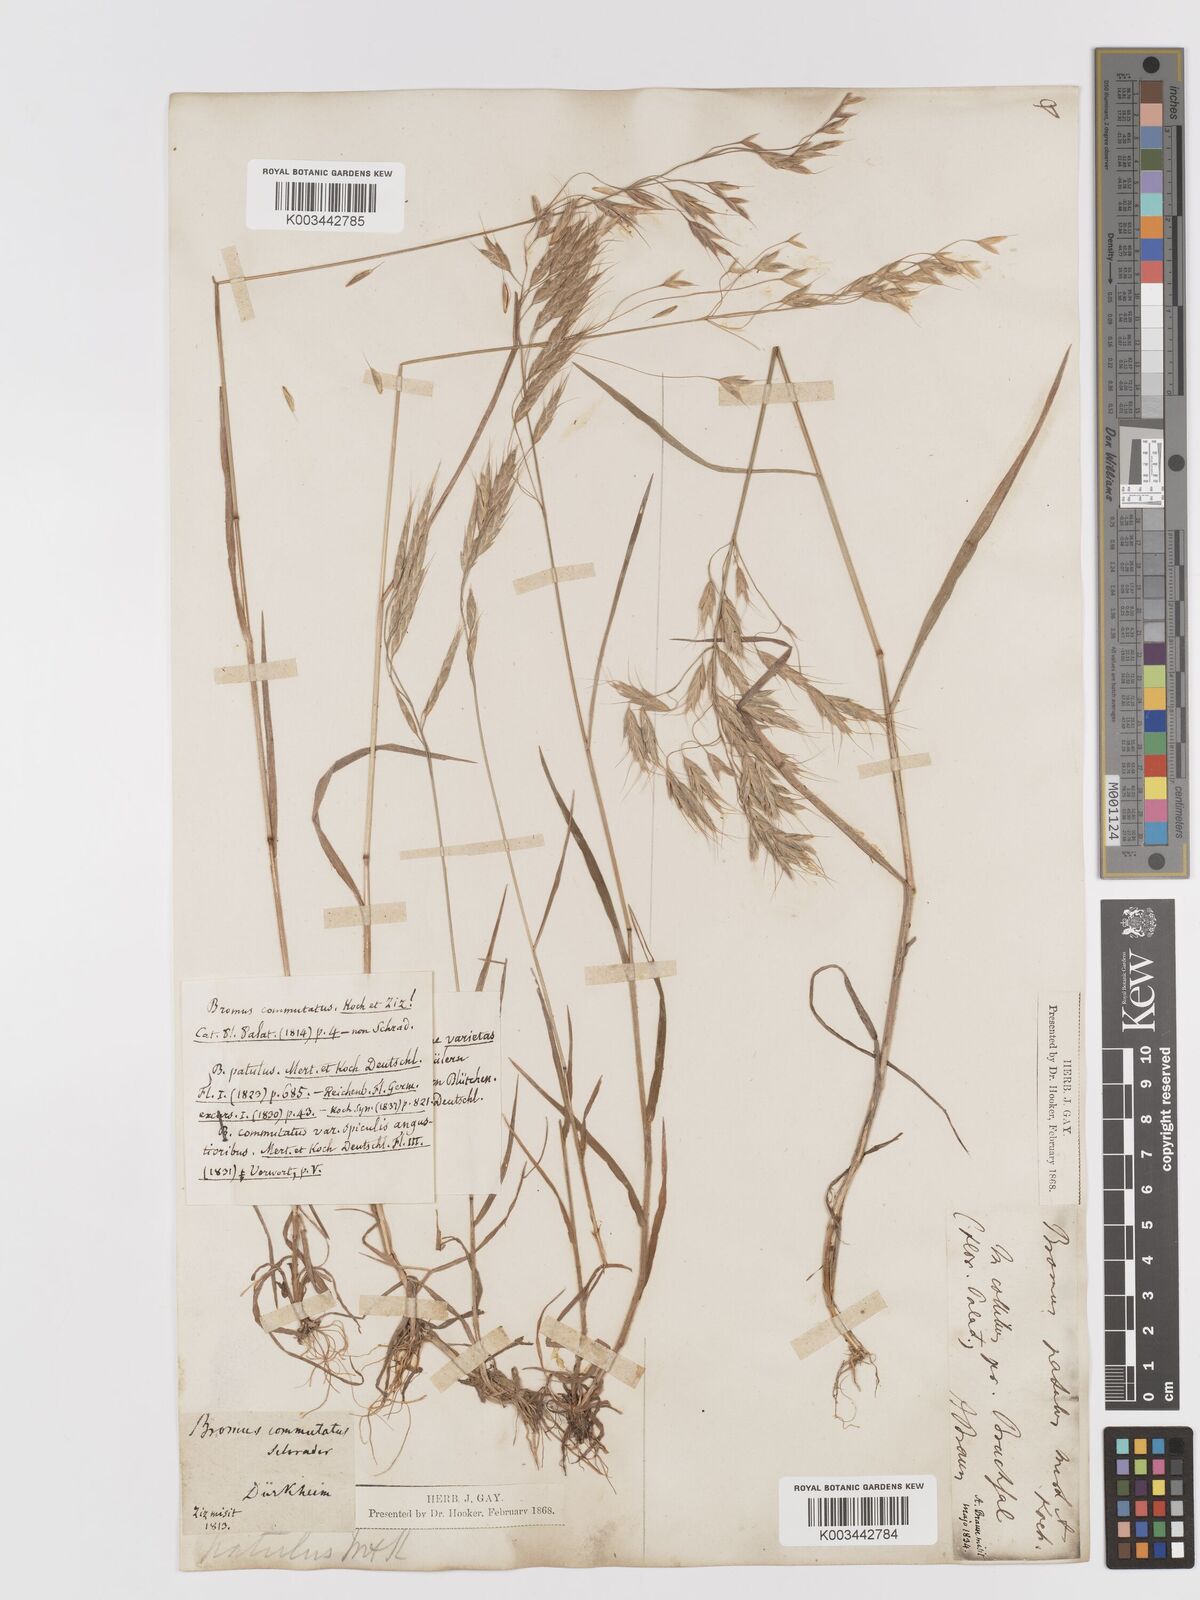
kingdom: Plantae
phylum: Tracheophyta
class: Liliopsida
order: Poales
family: Poaceae
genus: Bromus
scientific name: Bromus japonicus
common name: Japanese brome
